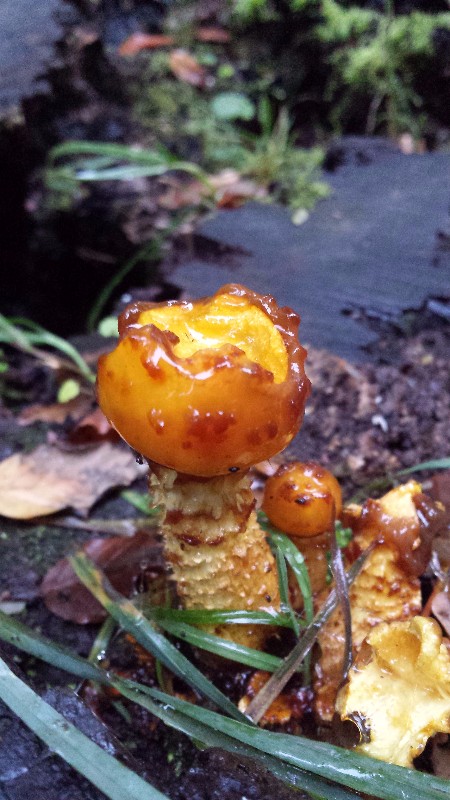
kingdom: Fungi
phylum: Basidiomycota
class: Agaricomycetes
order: Agaricales
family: Strophariaceae
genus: Pholiota
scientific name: Pholiota adiposa
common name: højtsiddende skælhat
